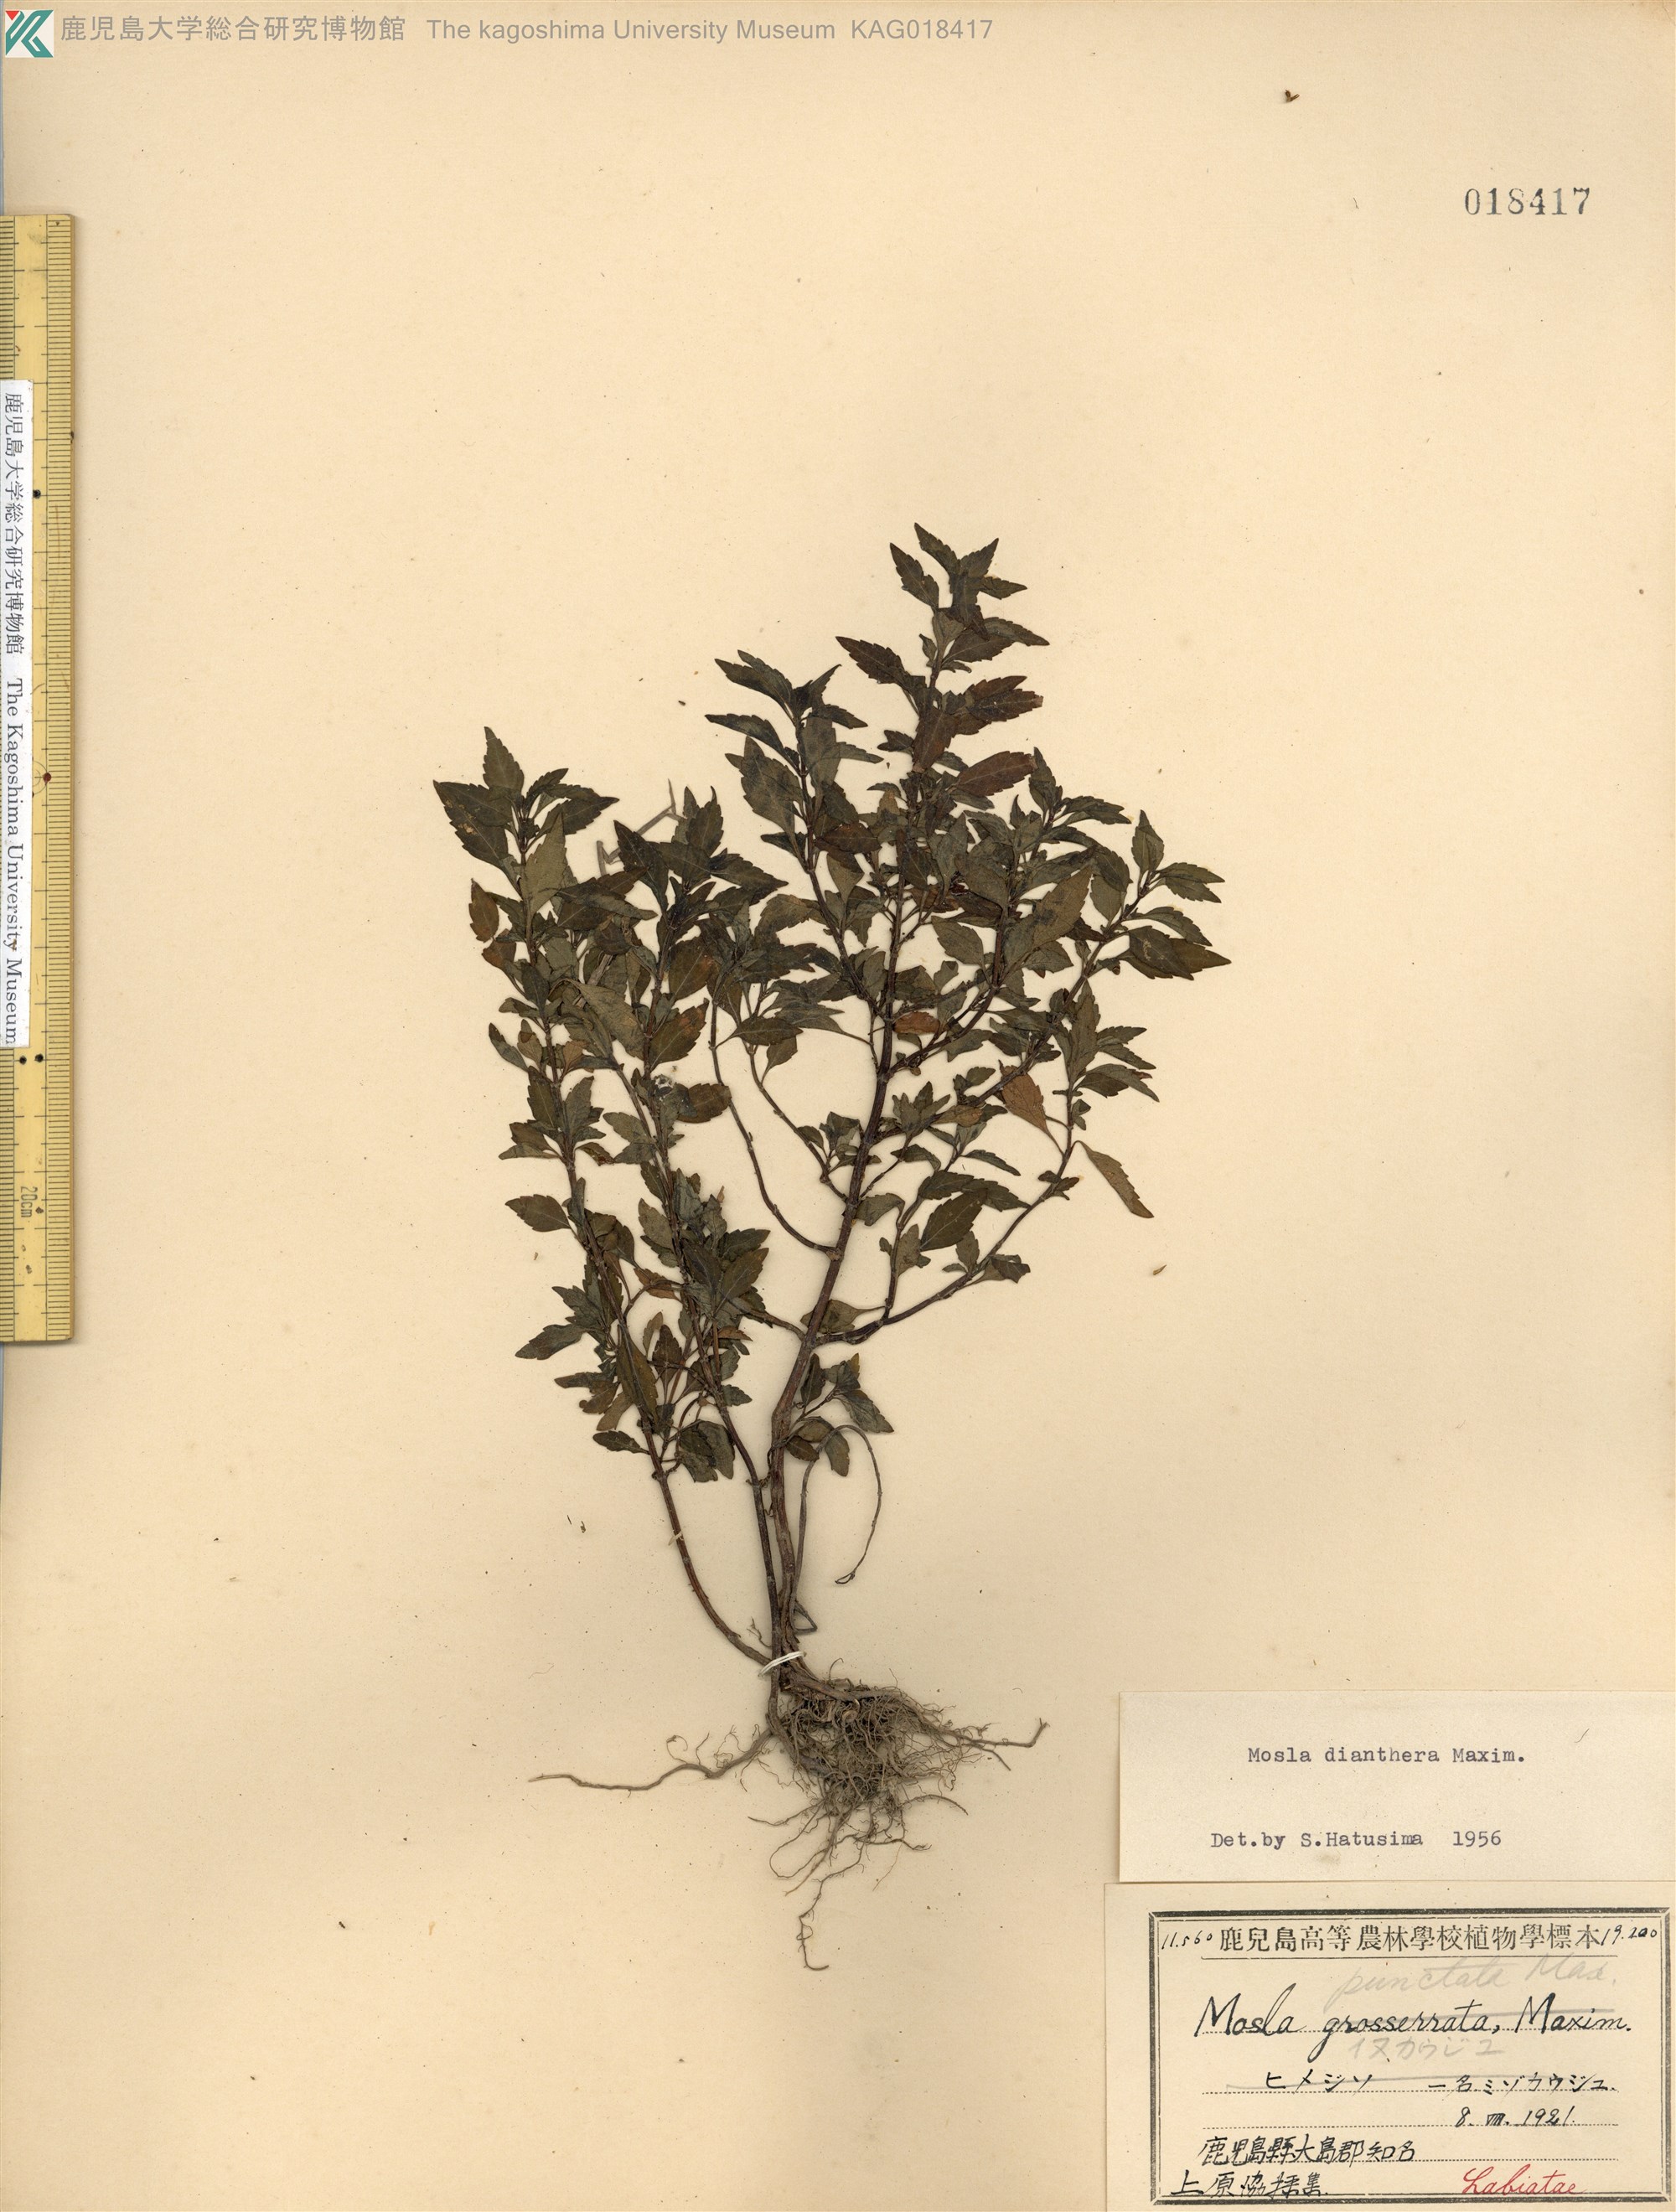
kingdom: Plantae
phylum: Tracheophyta
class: Magnoliopsida
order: Lamiales
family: Lamiaceae
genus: Mosla
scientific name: Mosla dianthera
